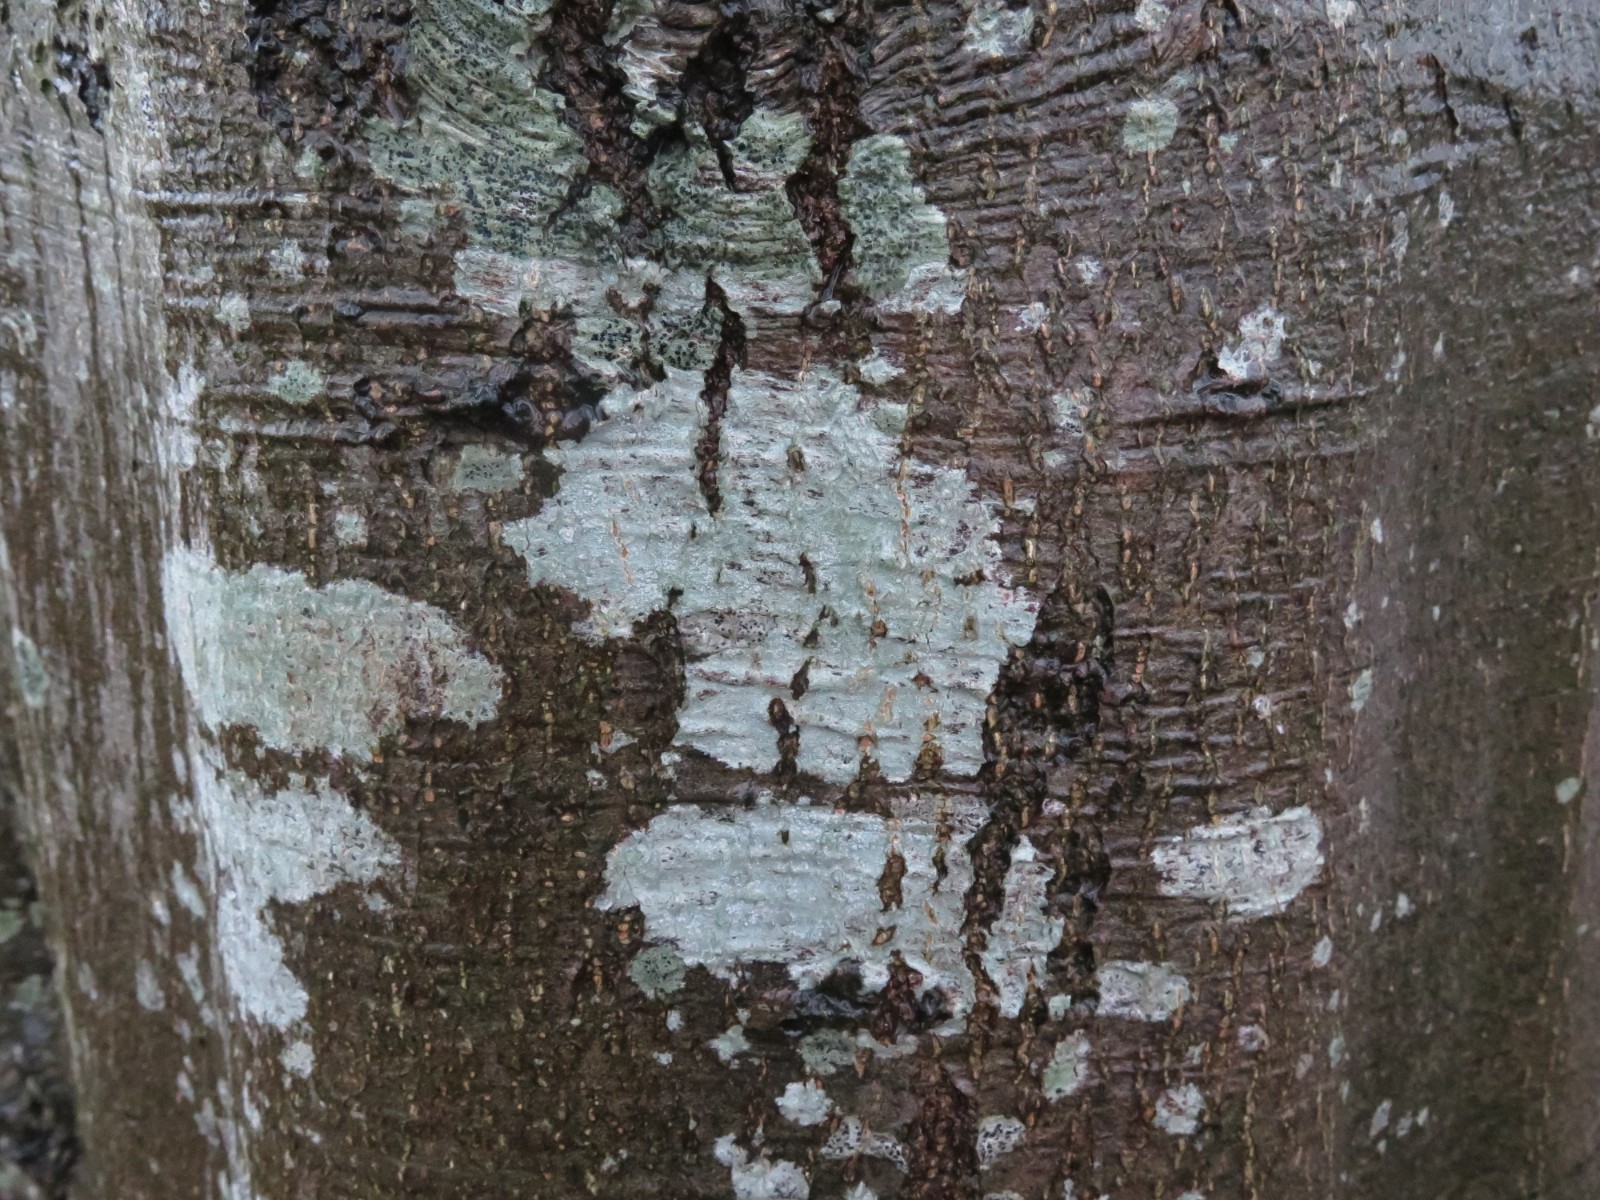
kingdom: Fungi
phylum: Ascomycota
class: Lecanoromycetes
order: Ostropales
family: Phlyctidaceae
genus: Phlyctis
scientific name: Phlyctis argena
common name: almindelig sølvlav
